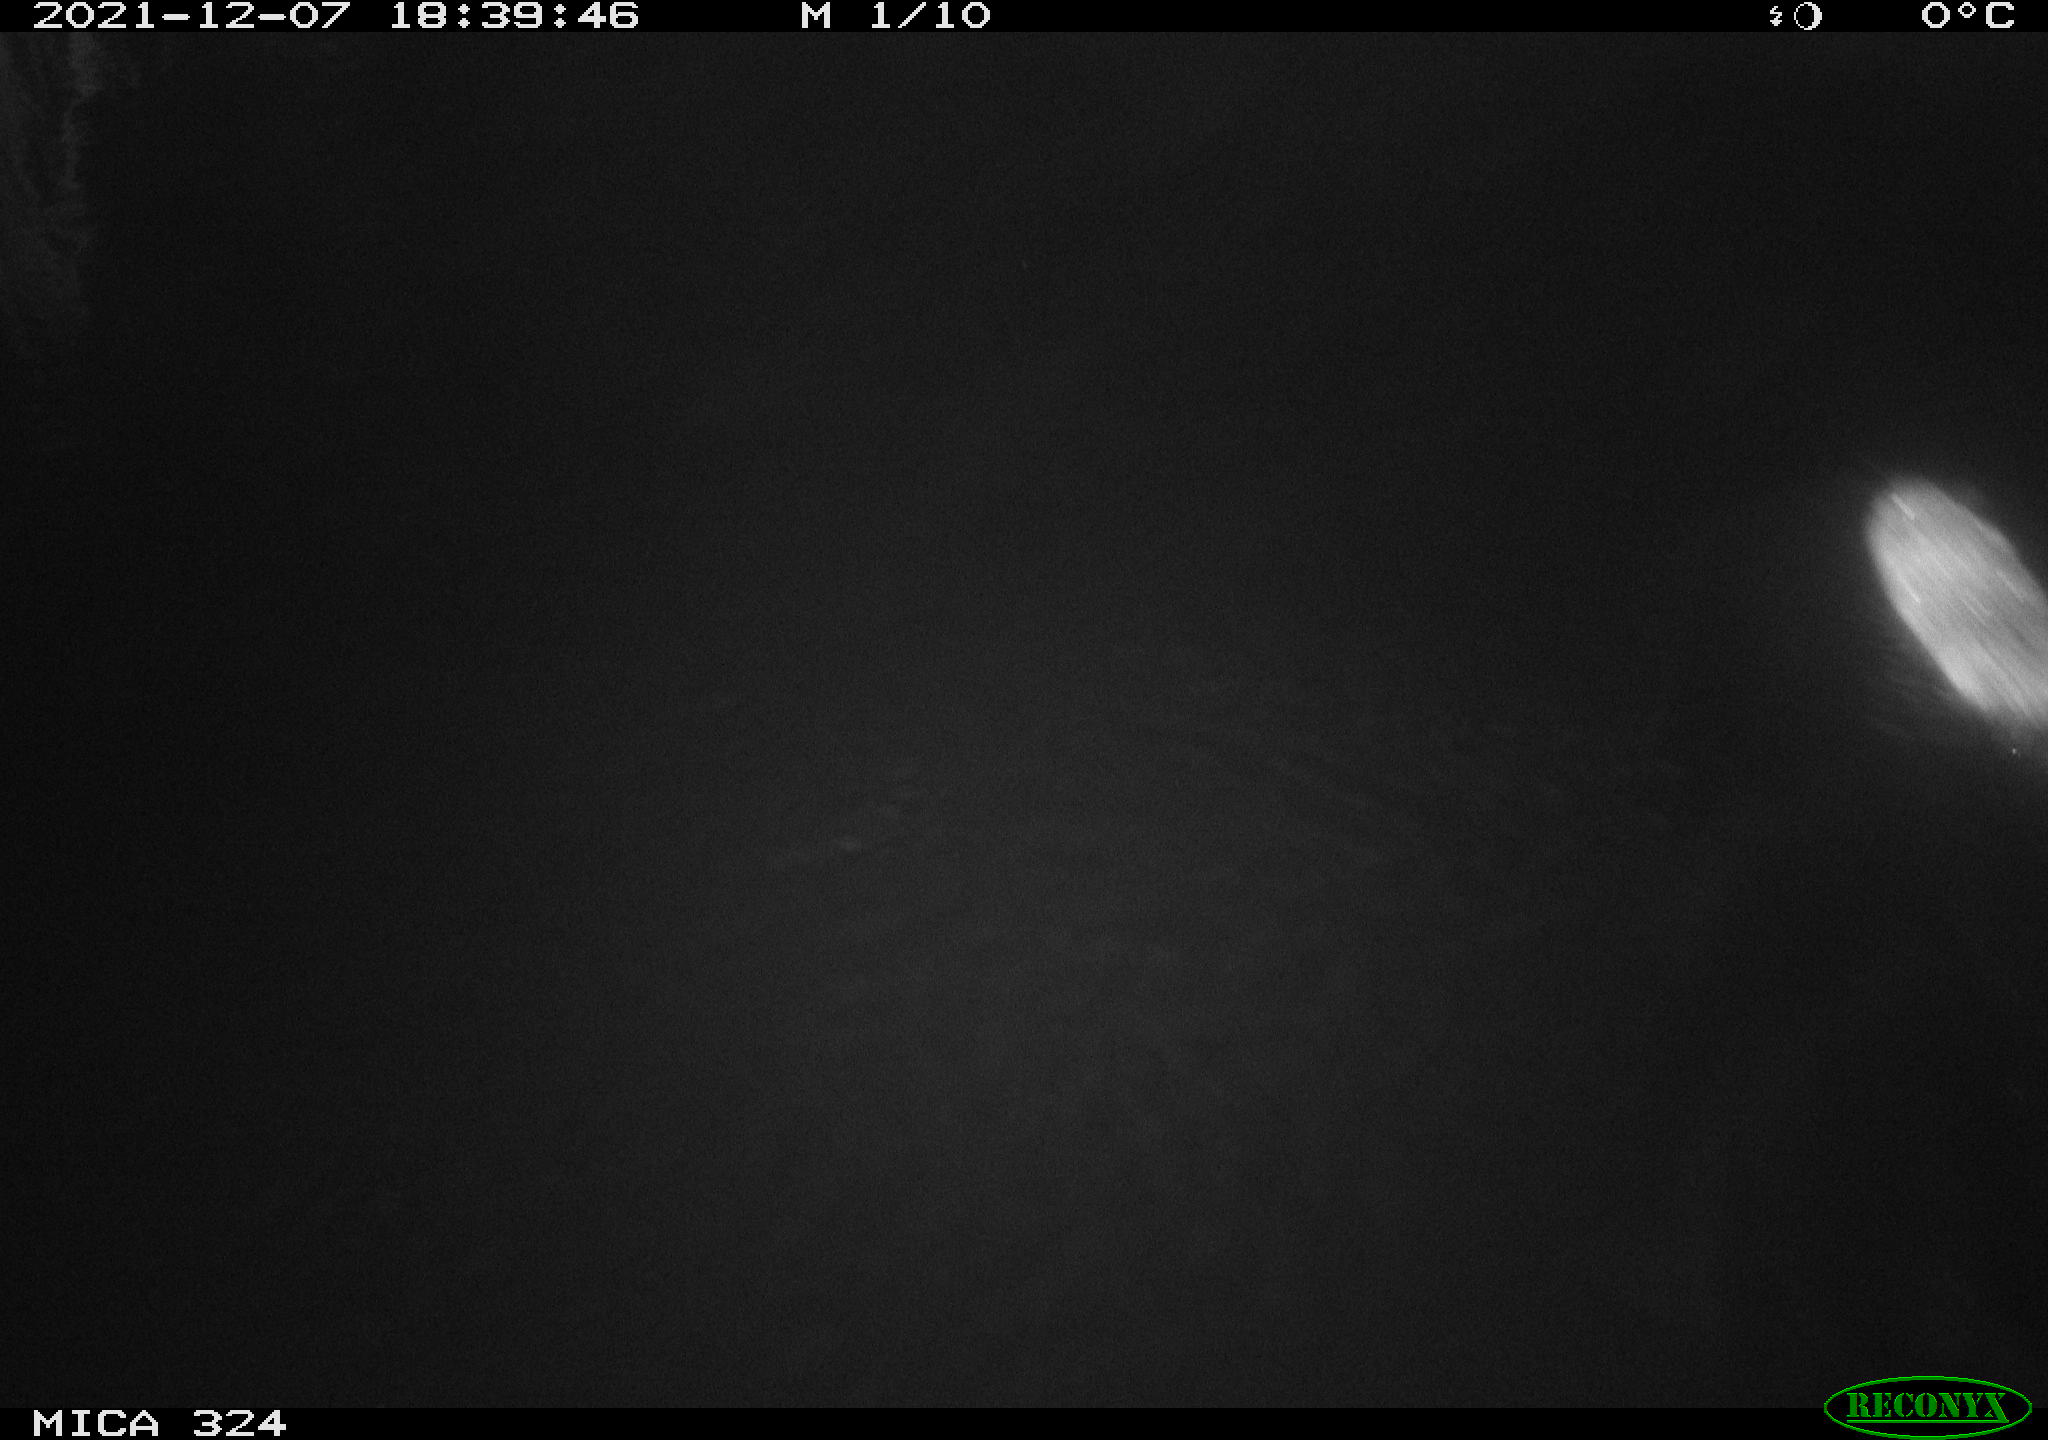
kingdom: Animalia
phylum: Chordata
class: Mammalia
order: Rodentia
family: Cricetidae
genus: Ondatra
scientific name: Ondatra zibethicus
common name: Muskrat
